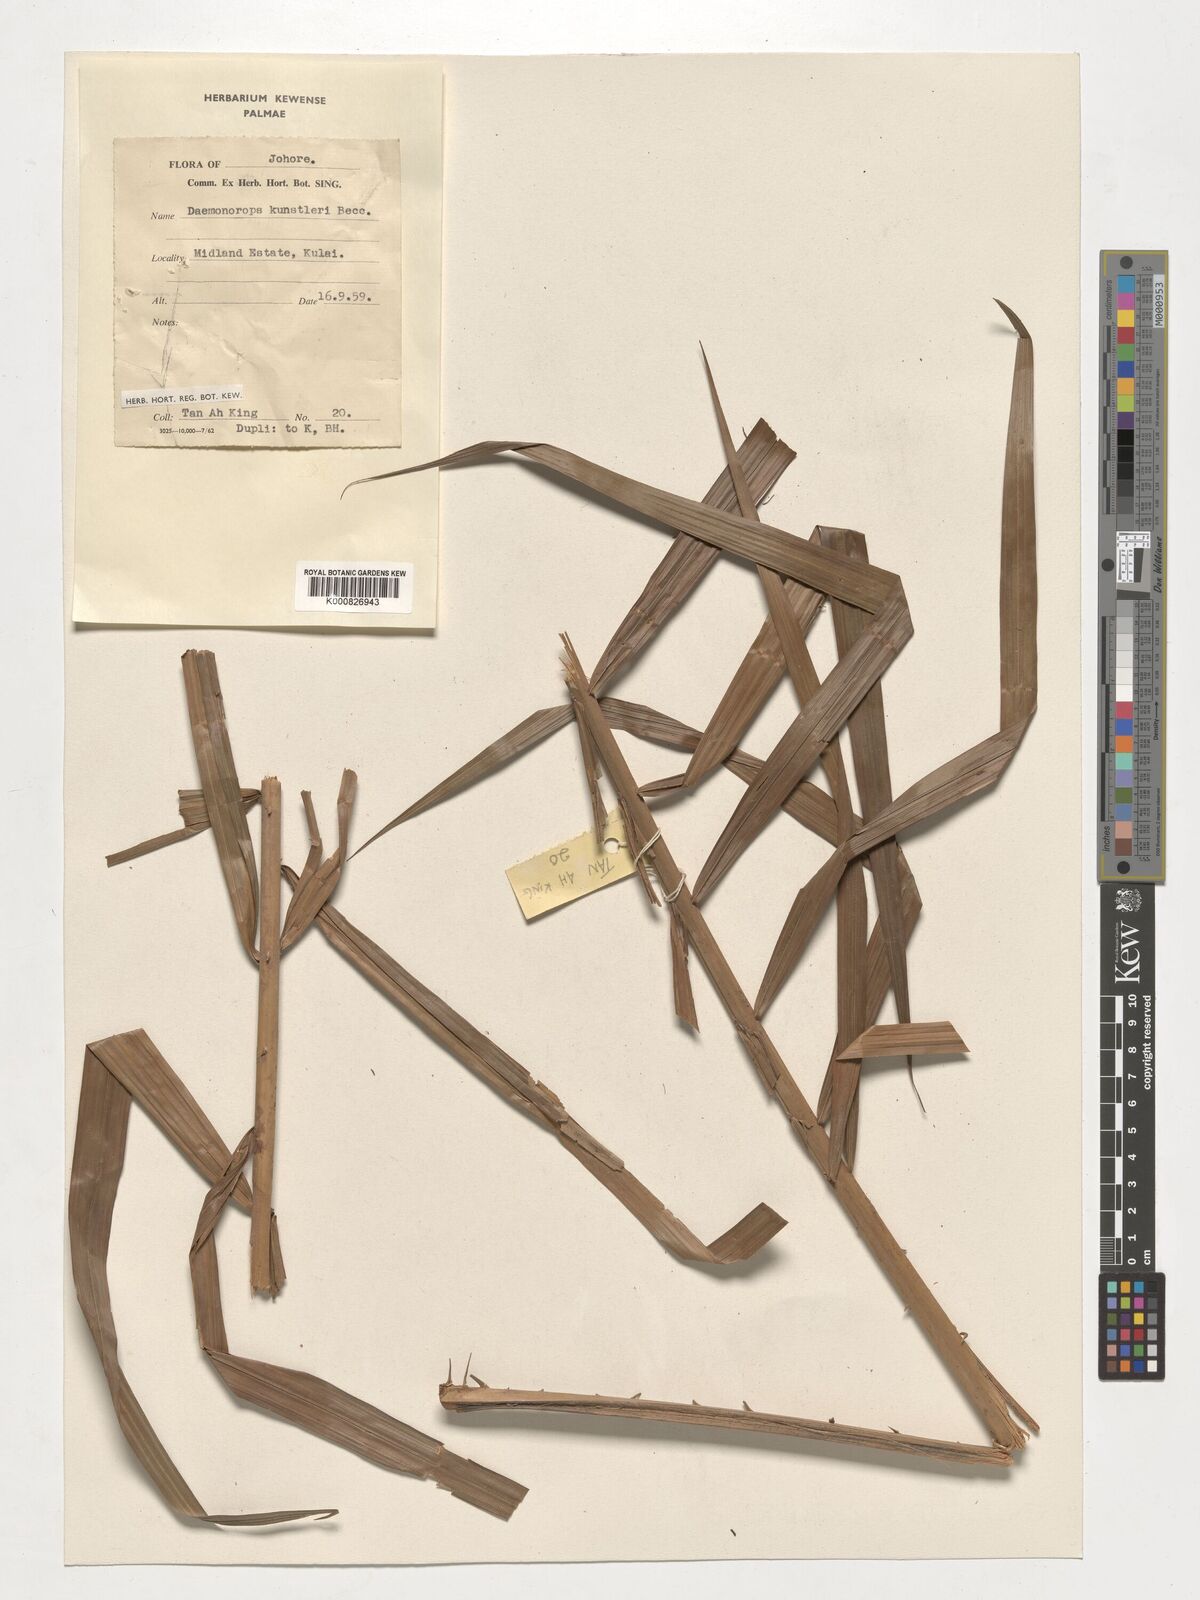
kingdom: Plantae
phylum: Tracheophyta
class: Liliopsida
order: Arecales
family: Arecaceae
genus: Calamus
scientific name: Calamus kunstleri
